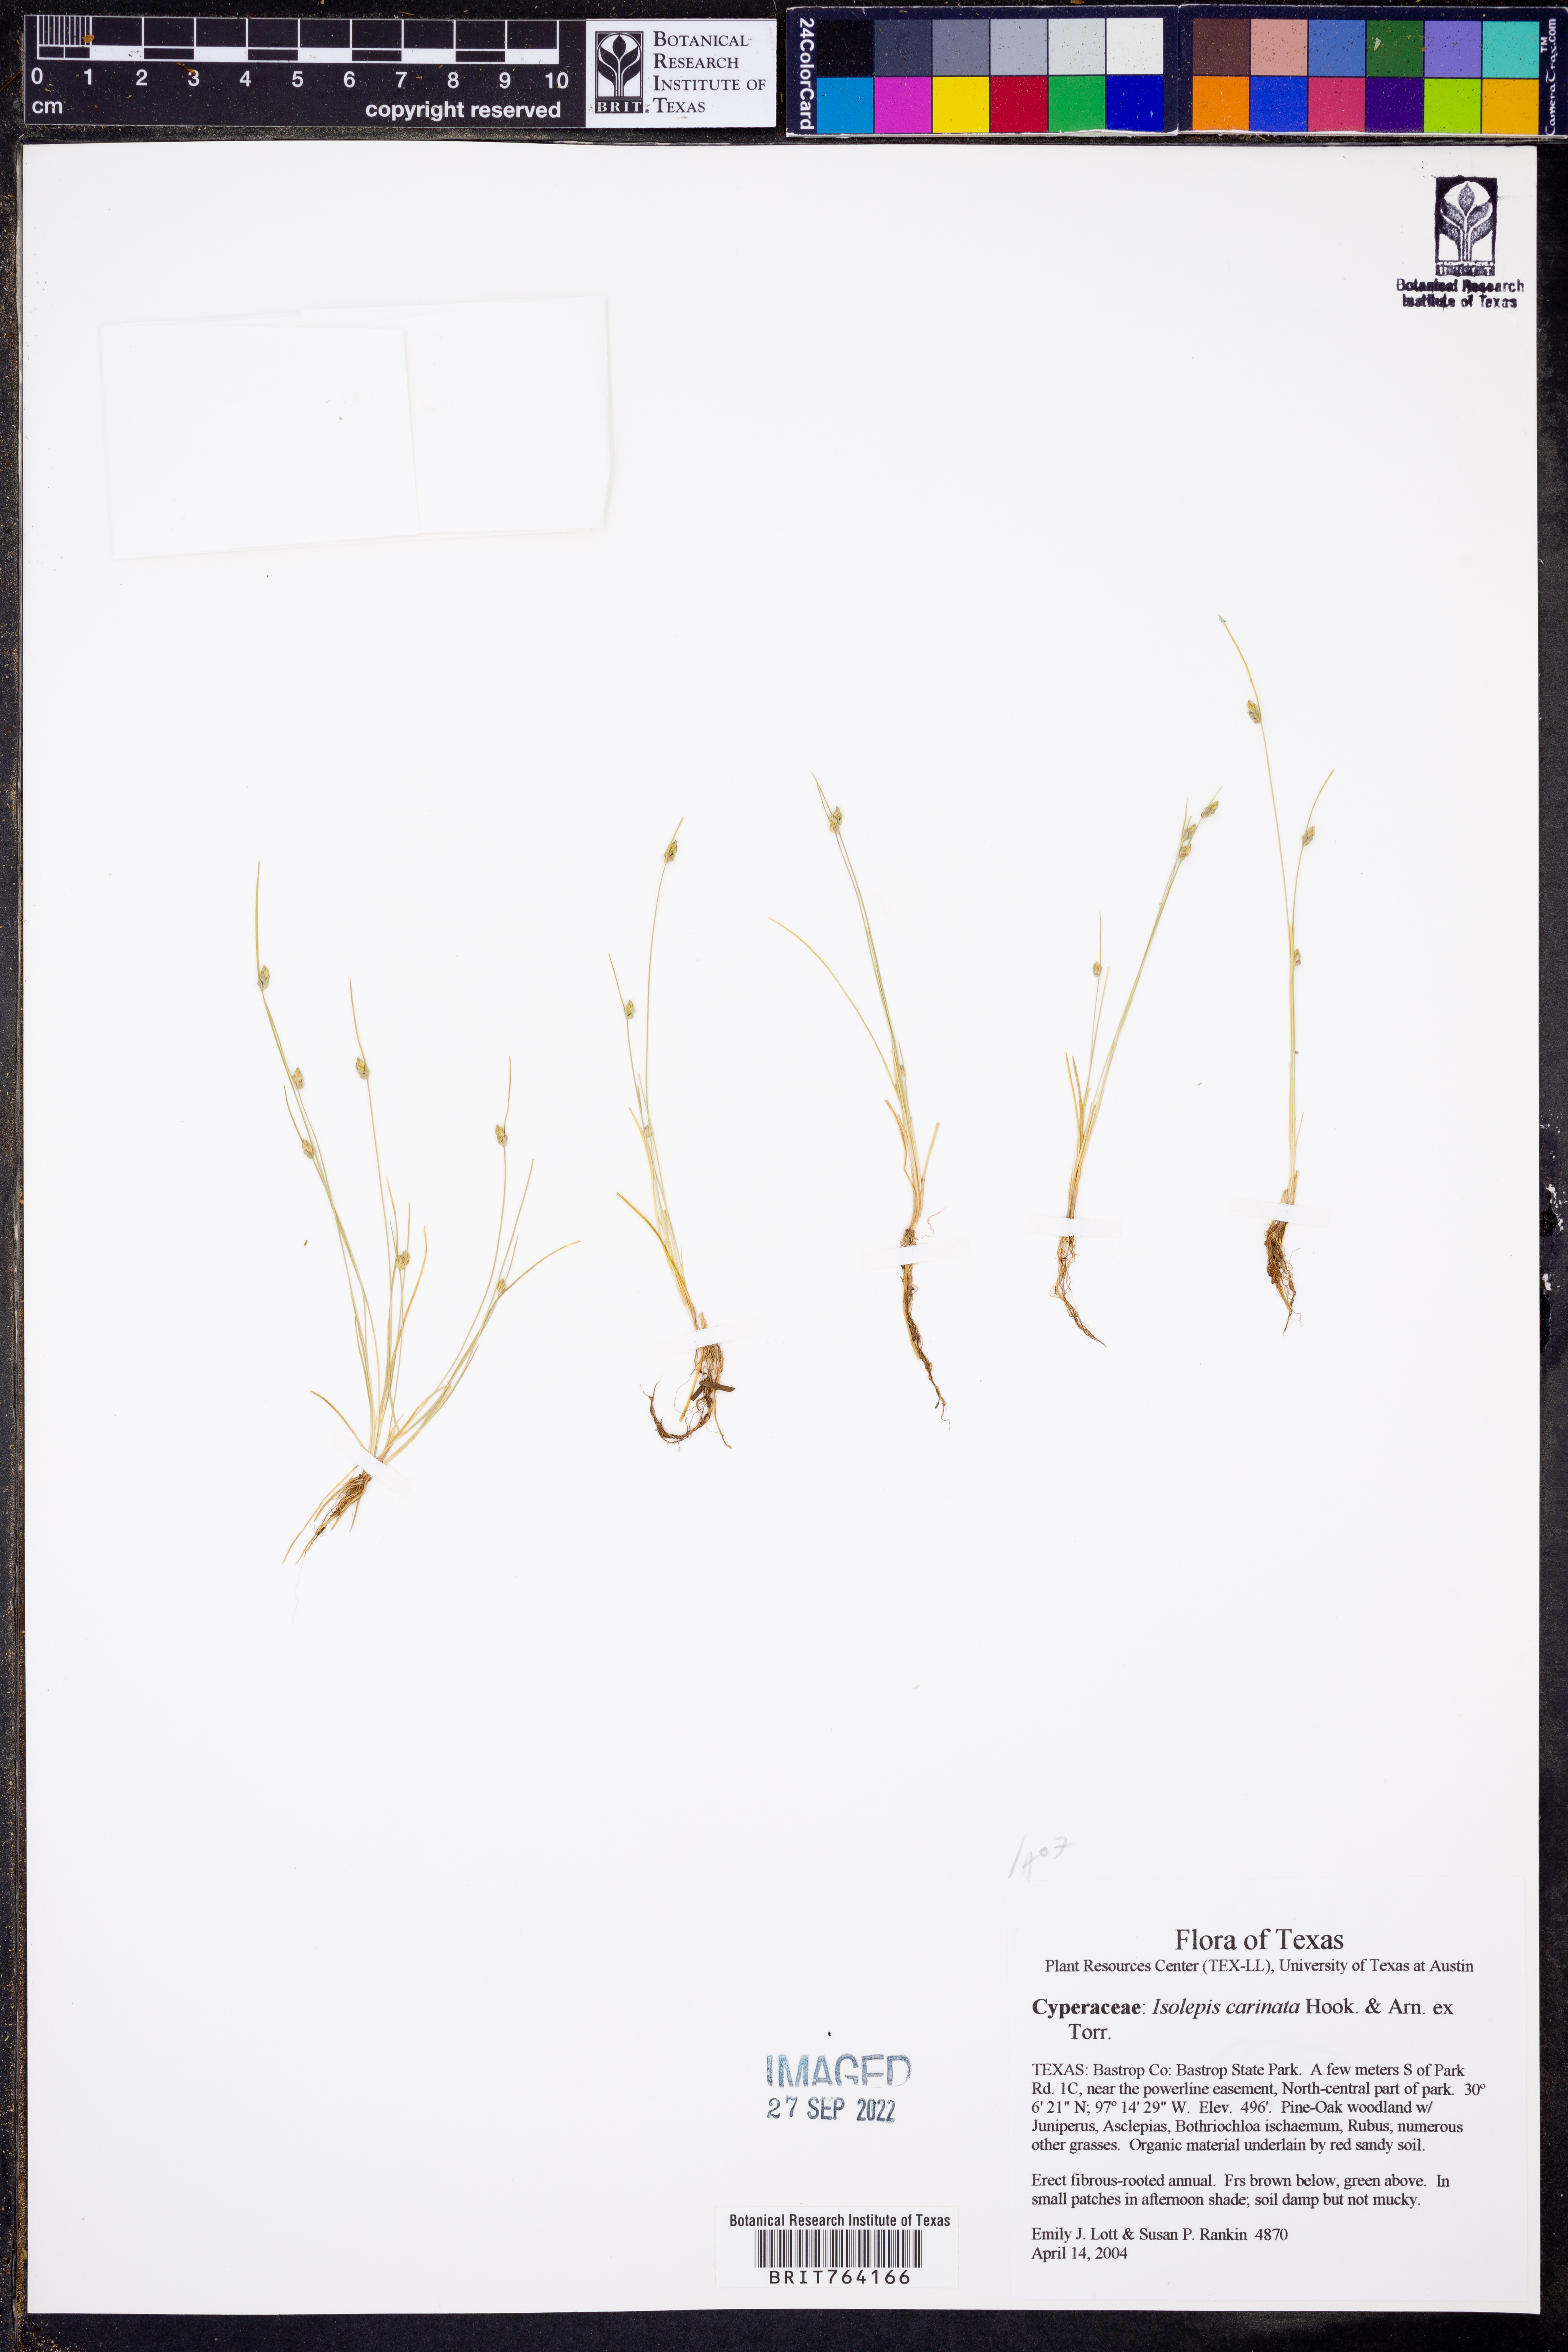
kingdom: Plantae
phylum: Tracheophyta
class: Liliopsida
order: Poales
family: Cyperaceae
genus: Isolepis
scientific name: Isolepis carinata
